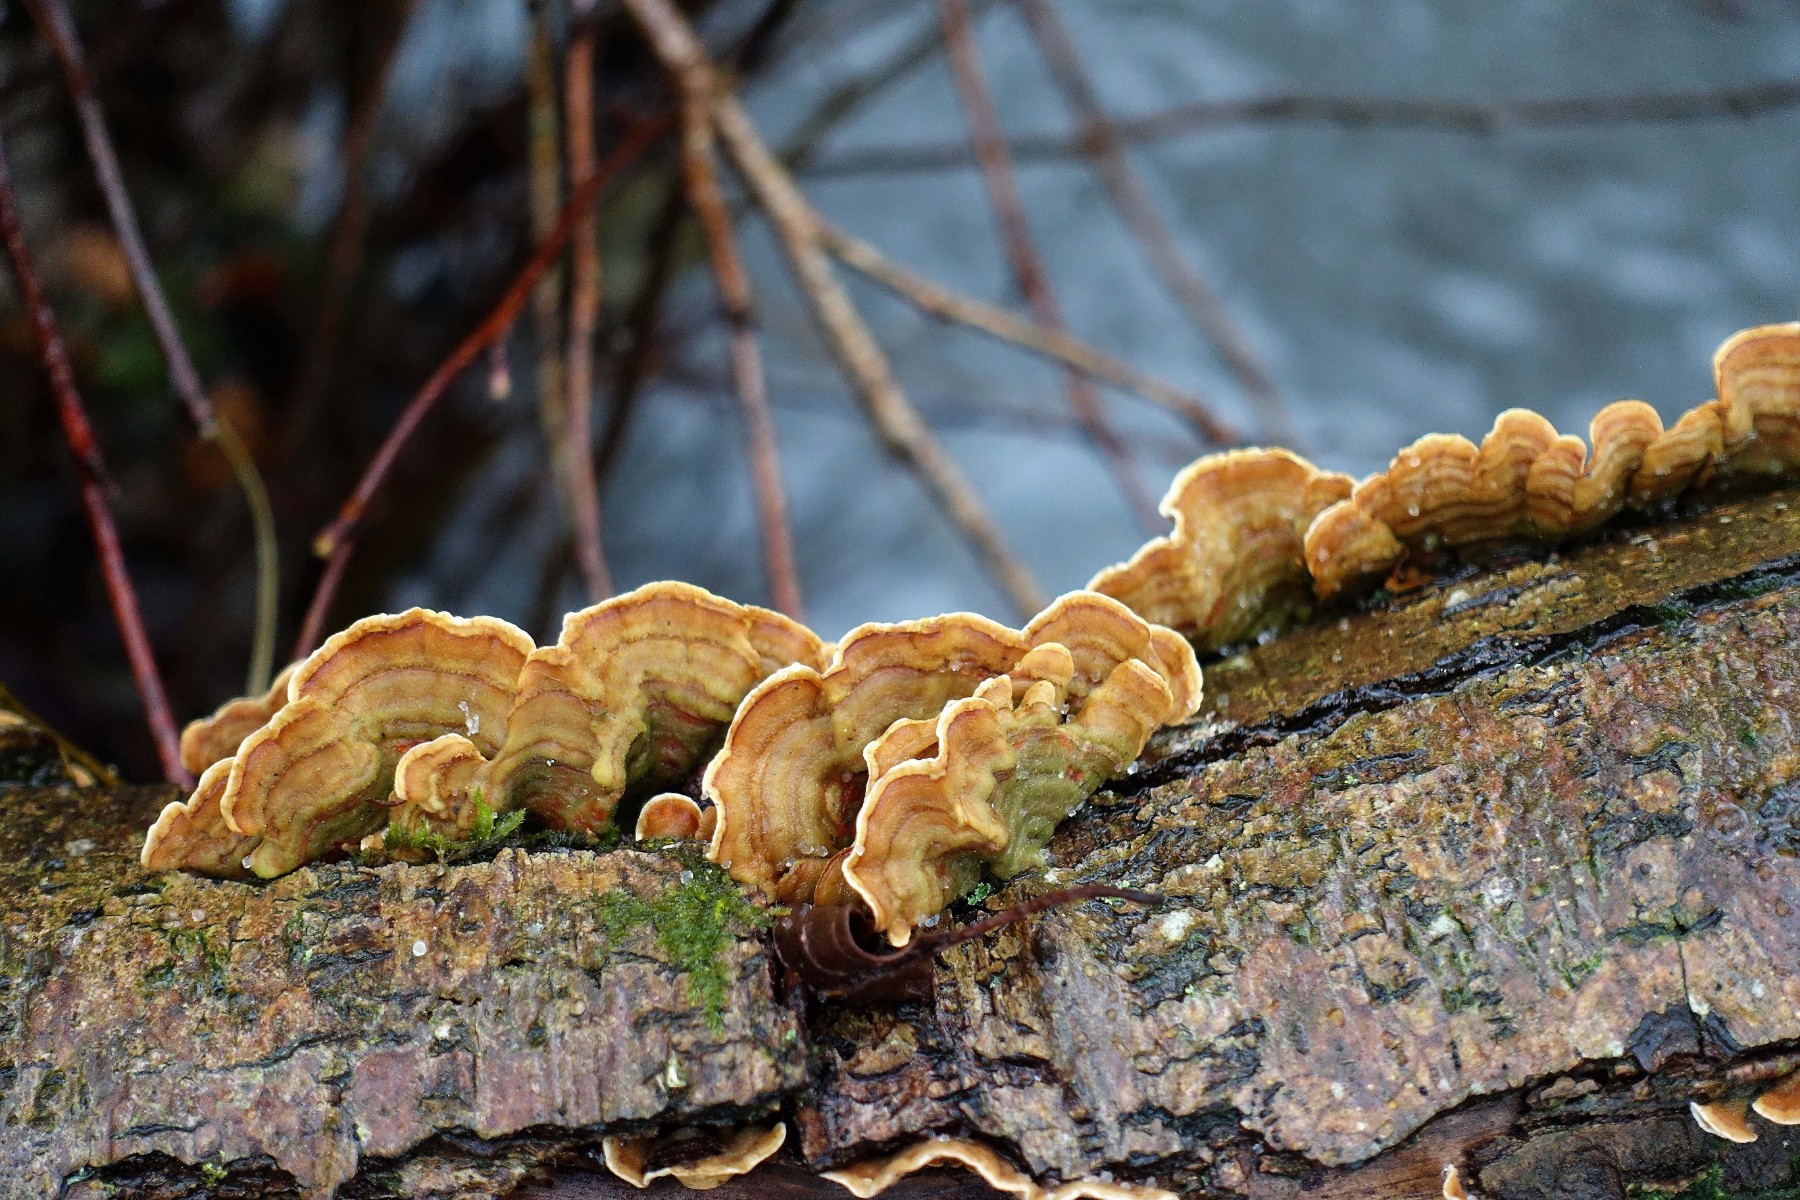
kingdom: Fungi
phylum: Basidiomycota
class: Agaricomycetes
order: Russulales
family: Stereaceae
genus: Stereum
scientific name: Stereum subtomentosum
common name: smuk lædersvamp
